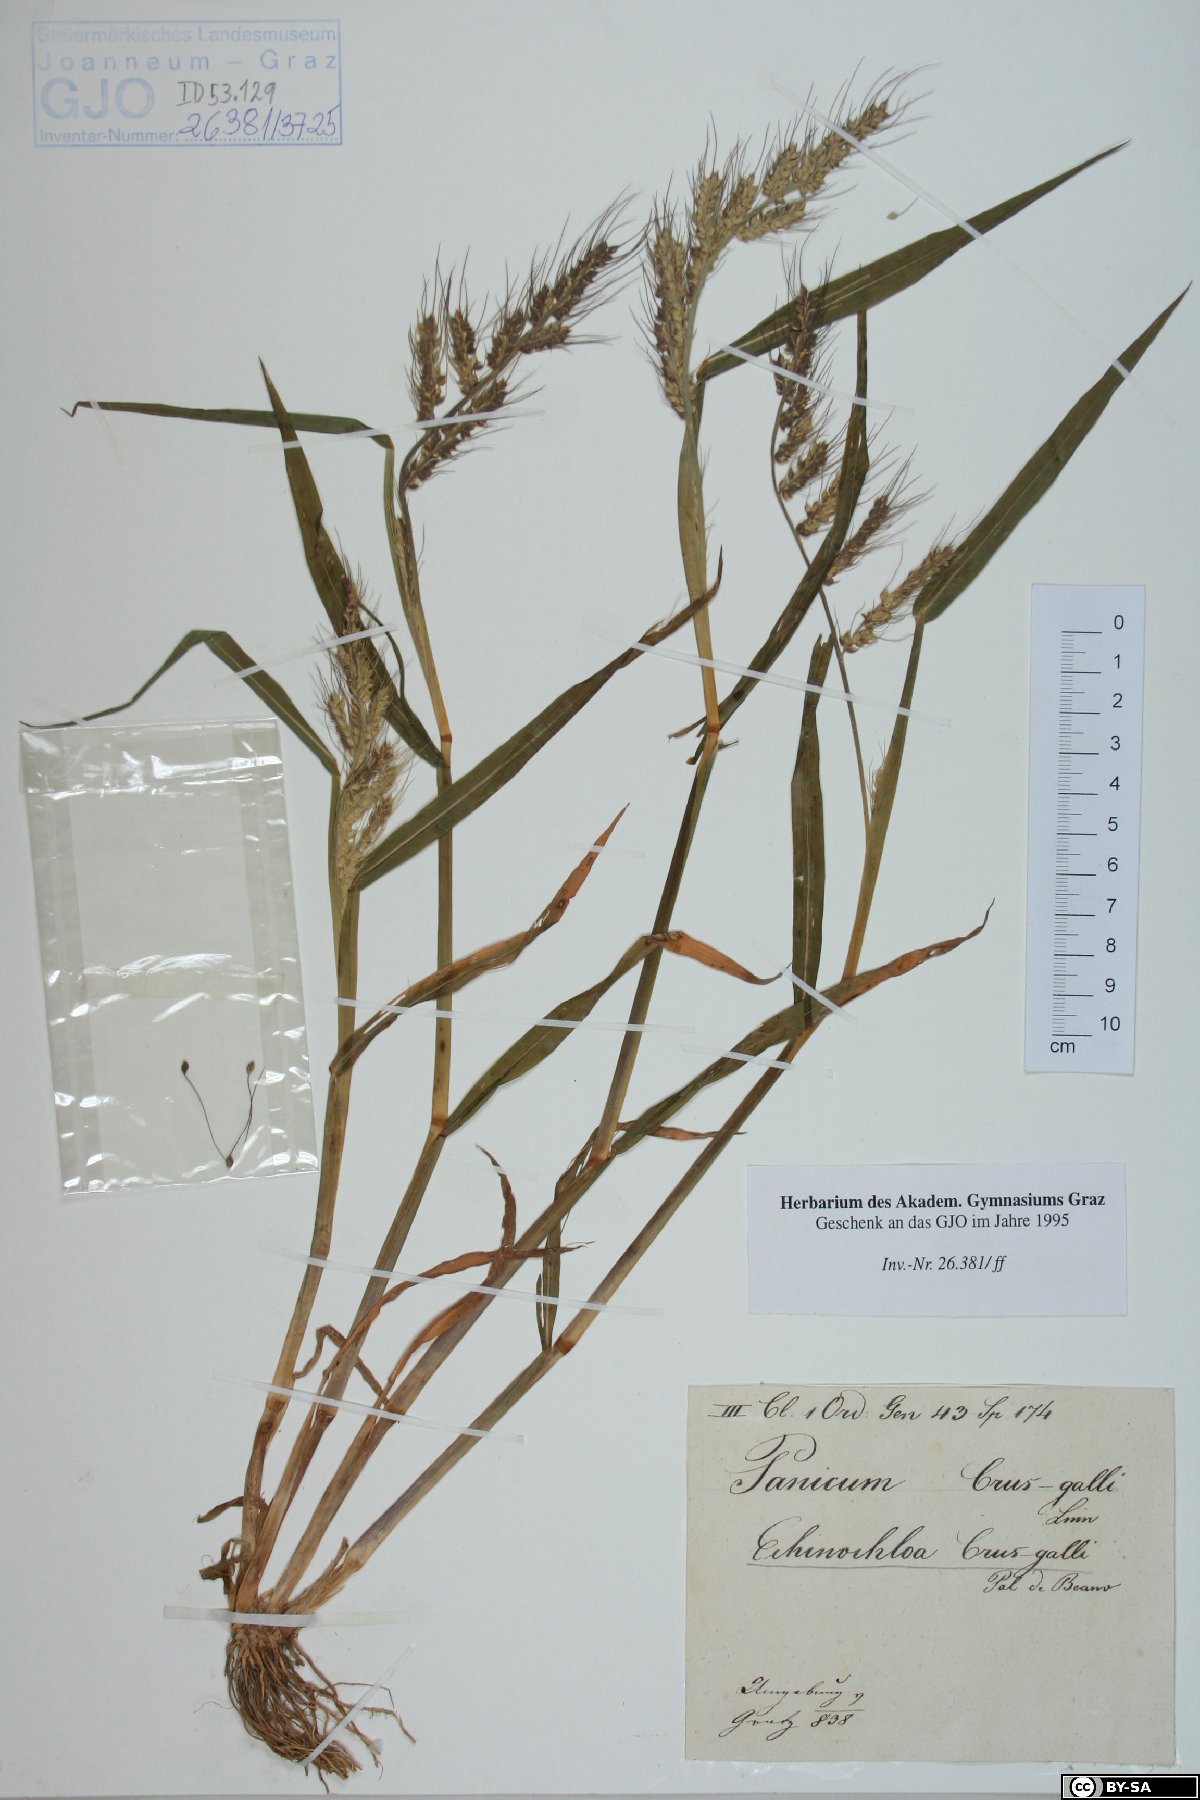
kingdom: Plantae
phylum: Tracheophyta
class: Liliopsida
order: Poales
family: Poaceae
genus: Echinochloa
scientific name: Echinochloa crus-galli
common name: Cockspur
